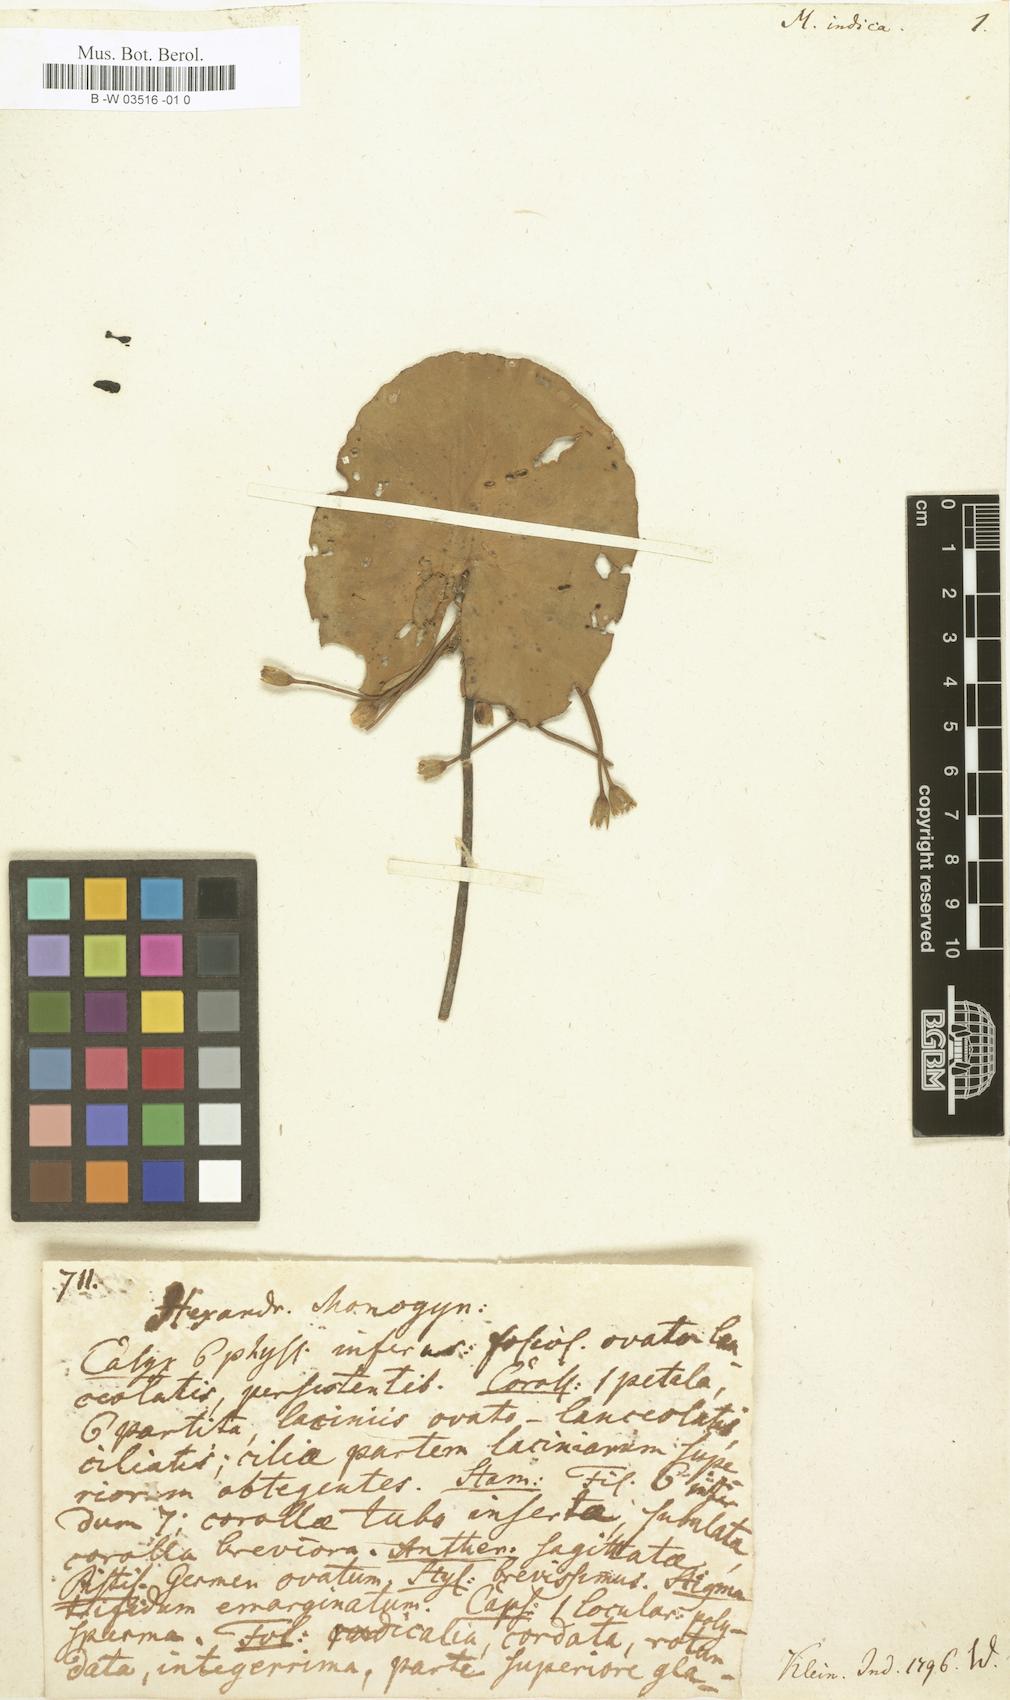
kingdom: Plantae
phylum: Tracheophyta
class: Magnoliopsida
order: Asterales
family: Menyanthaceae
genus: Nymphoides
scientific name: Nymphoides indica
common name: Water-snowflake
